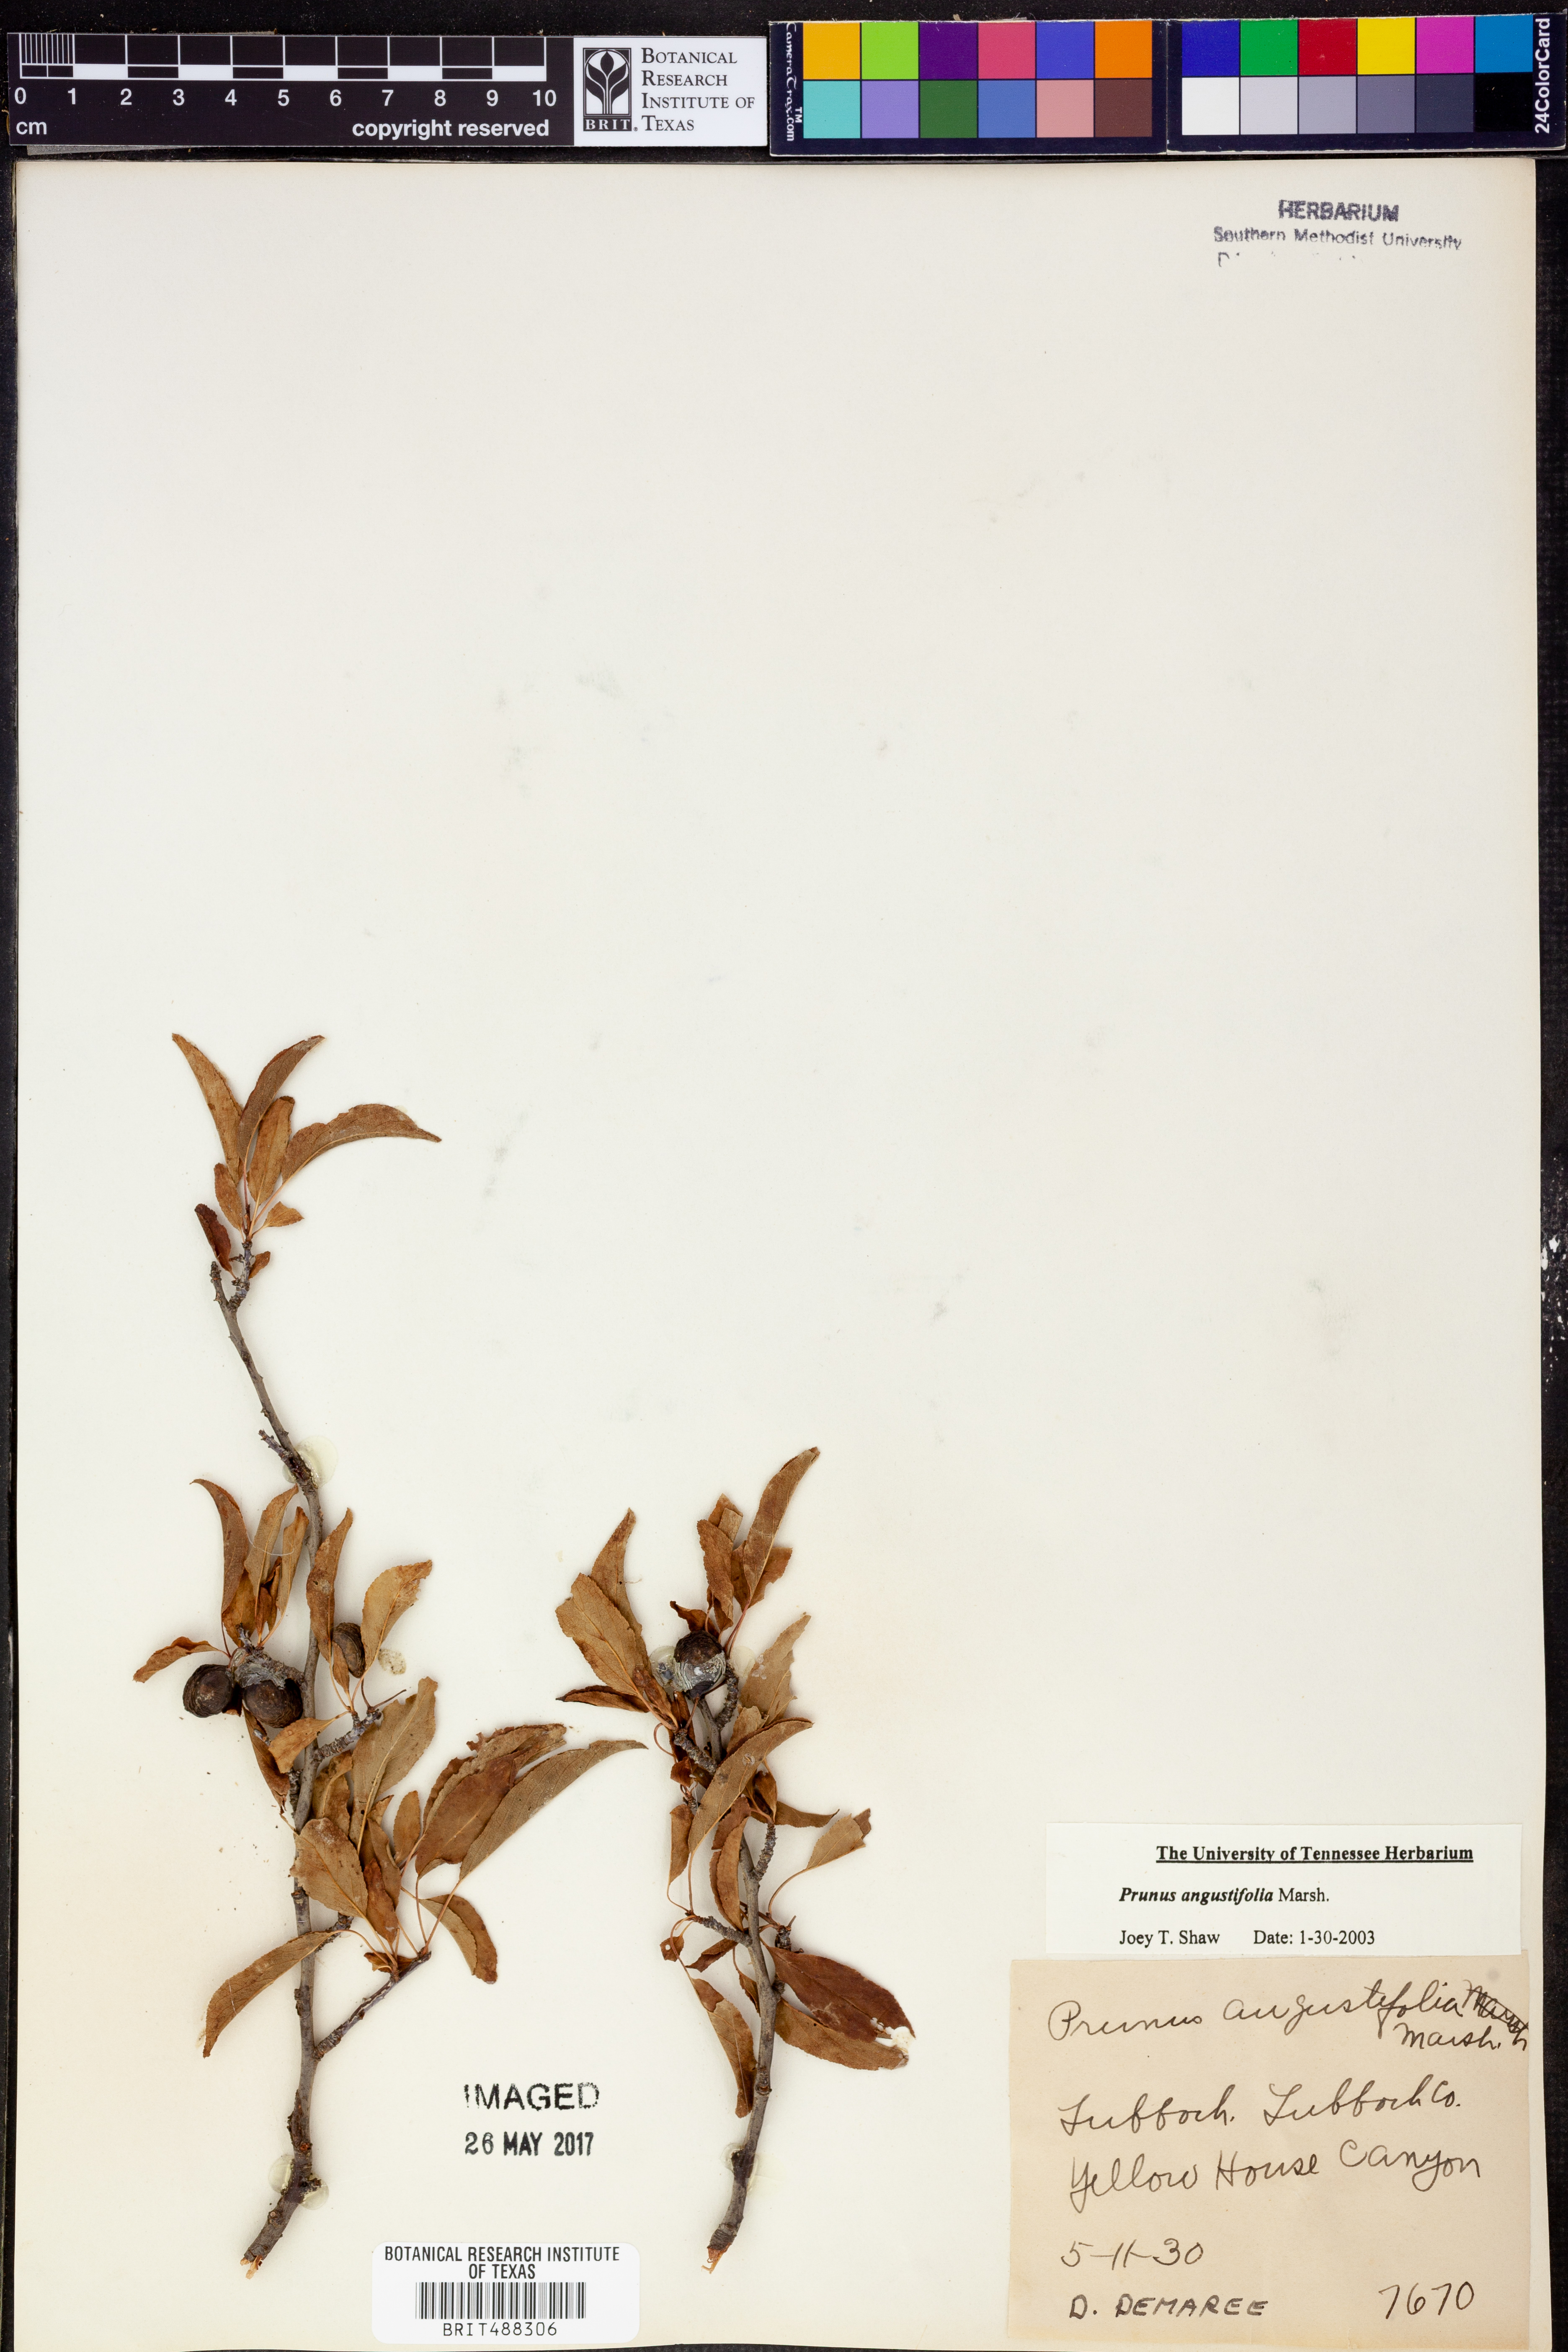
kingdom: Plantae
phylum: Tracheophyta
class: Magnoliopsida
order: Rosales
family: Rosaceae
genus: Prunus
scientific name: Prunus angustifolia
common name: Cherokee plum
